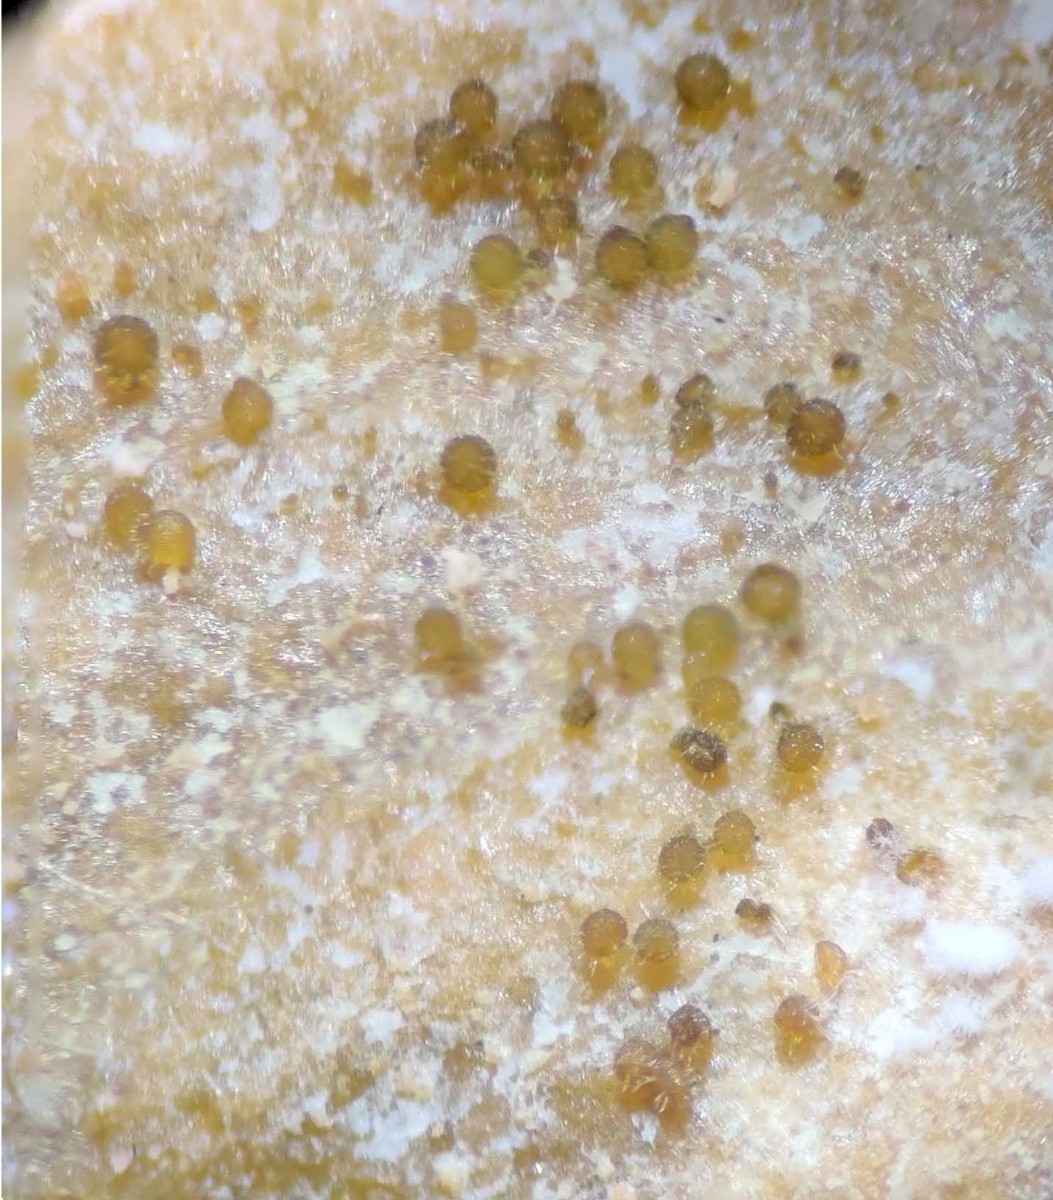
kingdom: Fungi
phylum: Ascomycota
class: Sordariomycetes
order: Hypocreales
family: Nectriaceae
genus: Pseudonectria
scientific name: Pseudonectria buxi
